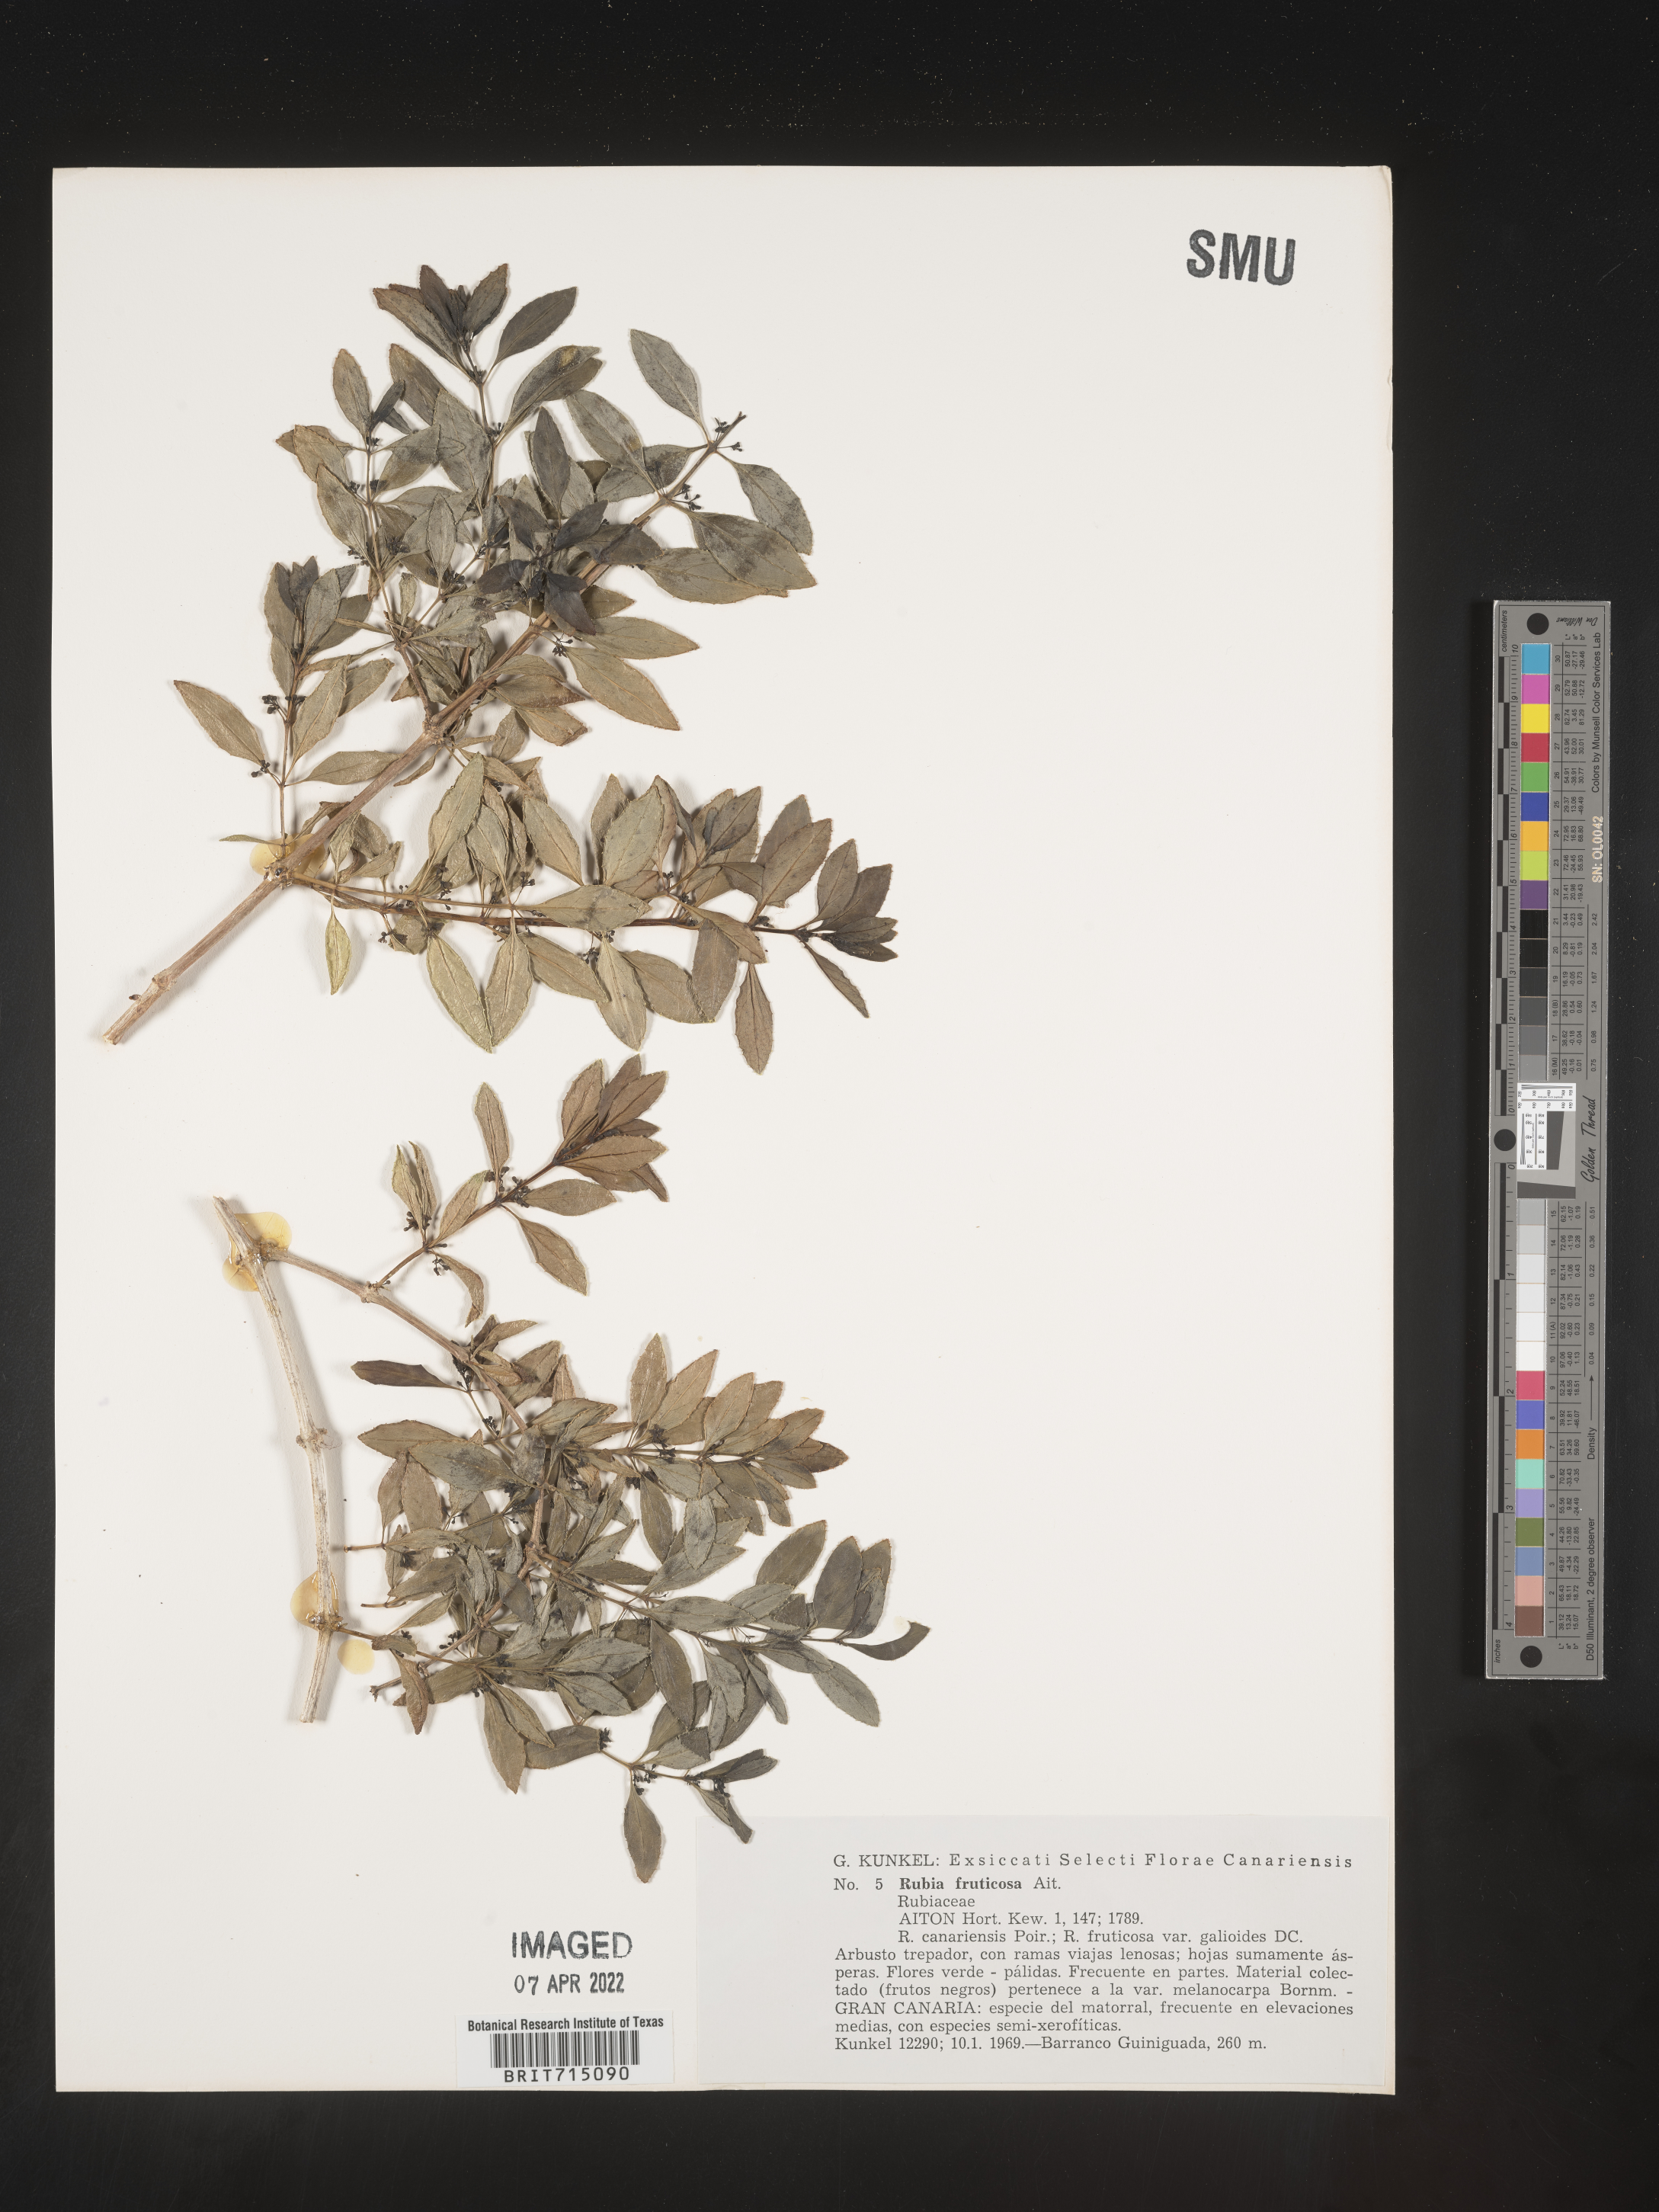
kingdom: Plantae
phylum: Tracheophyta
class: Magnoliopsida
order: Gentianales
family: Rubiaceae
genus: Rubia
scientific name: Rubia
